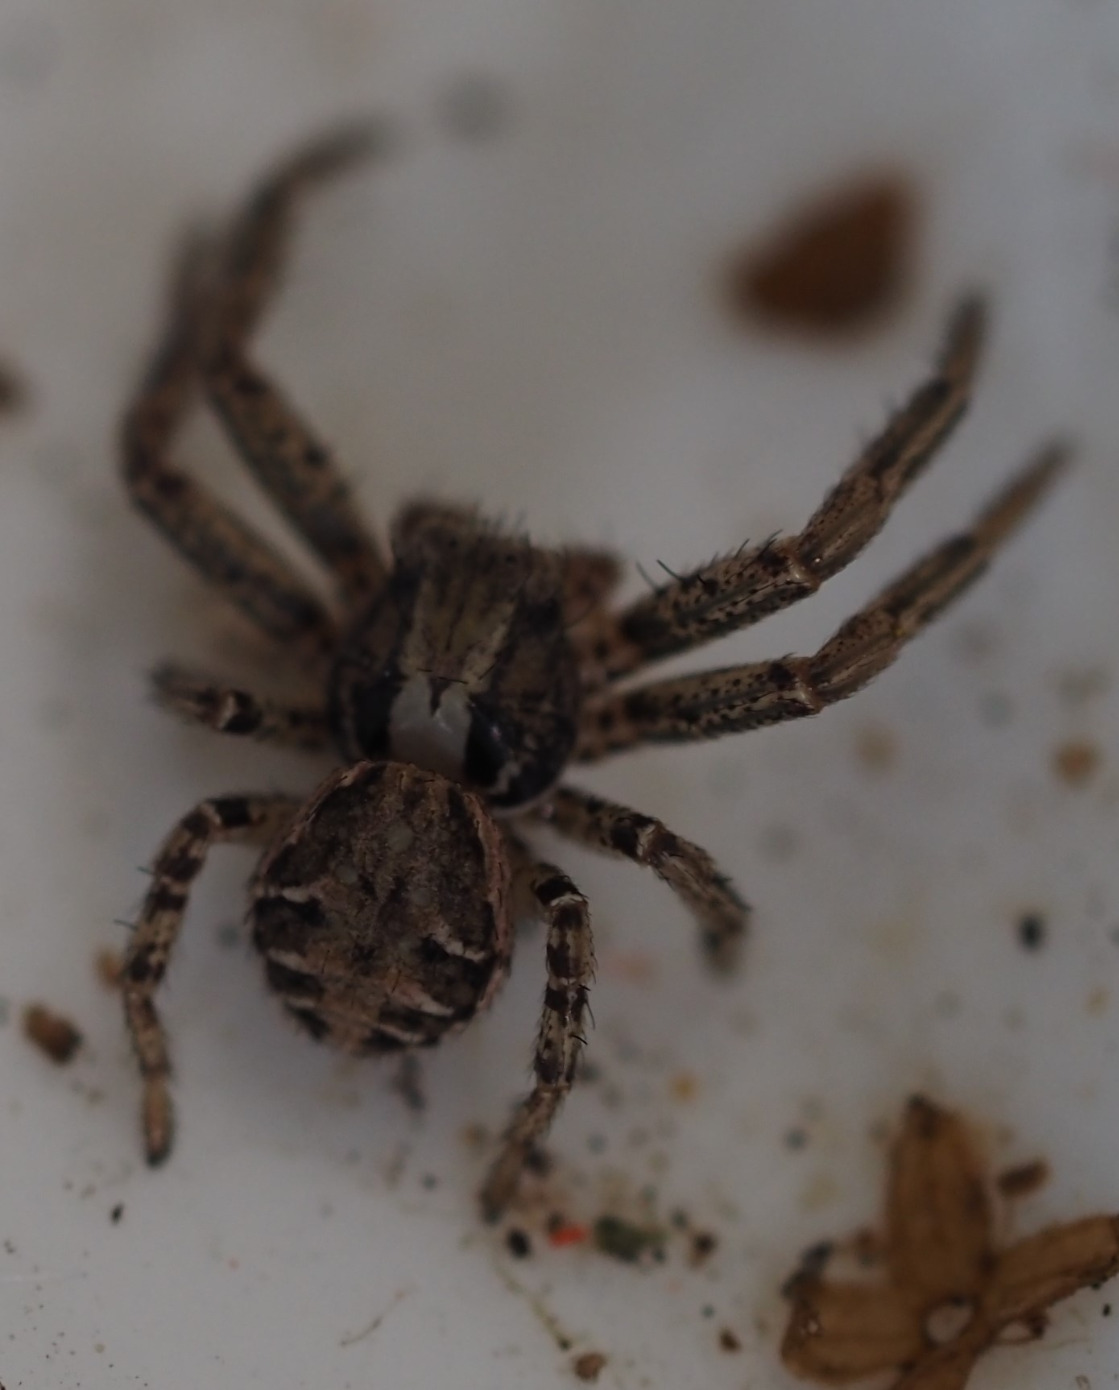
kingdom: Animalia
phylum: Arthropoda
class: Arachnida
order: Araneae
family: Thomisidae
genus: Xysticus
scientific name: Xysticus
